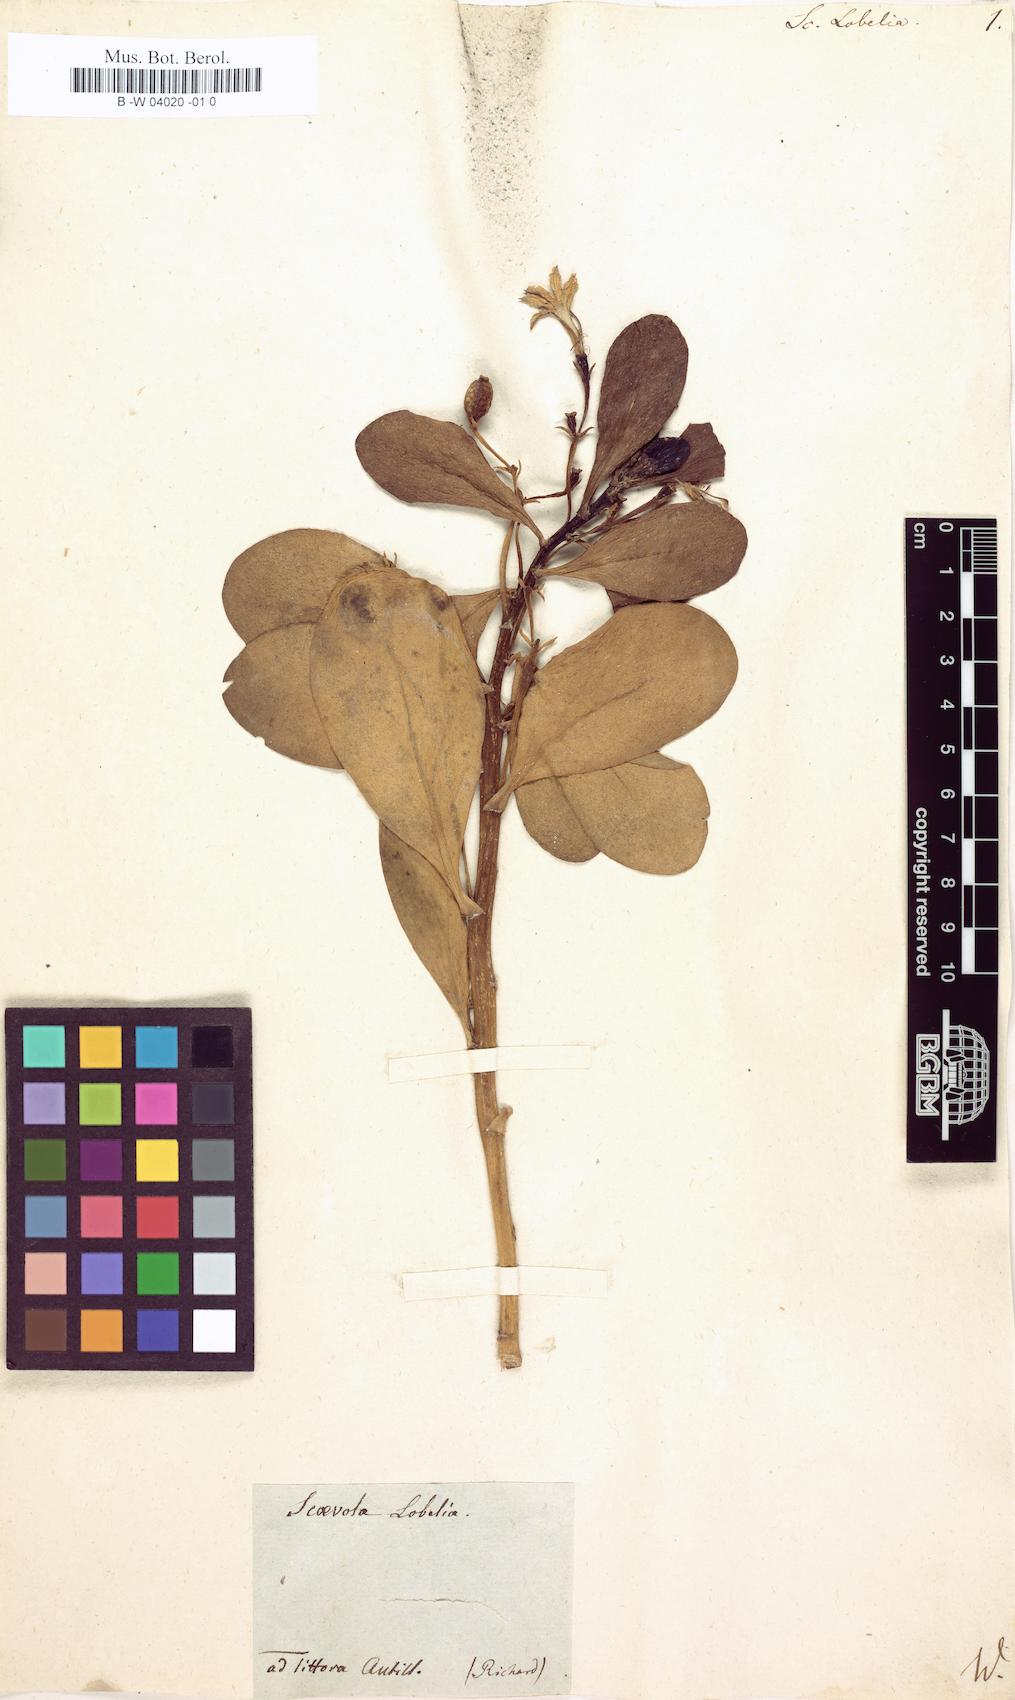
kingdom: Plantae
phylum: Tracheophyta
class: Magnoliopsida
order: Asterales
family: Goodeniaceae
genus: Scaevola
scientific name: Scaevola
